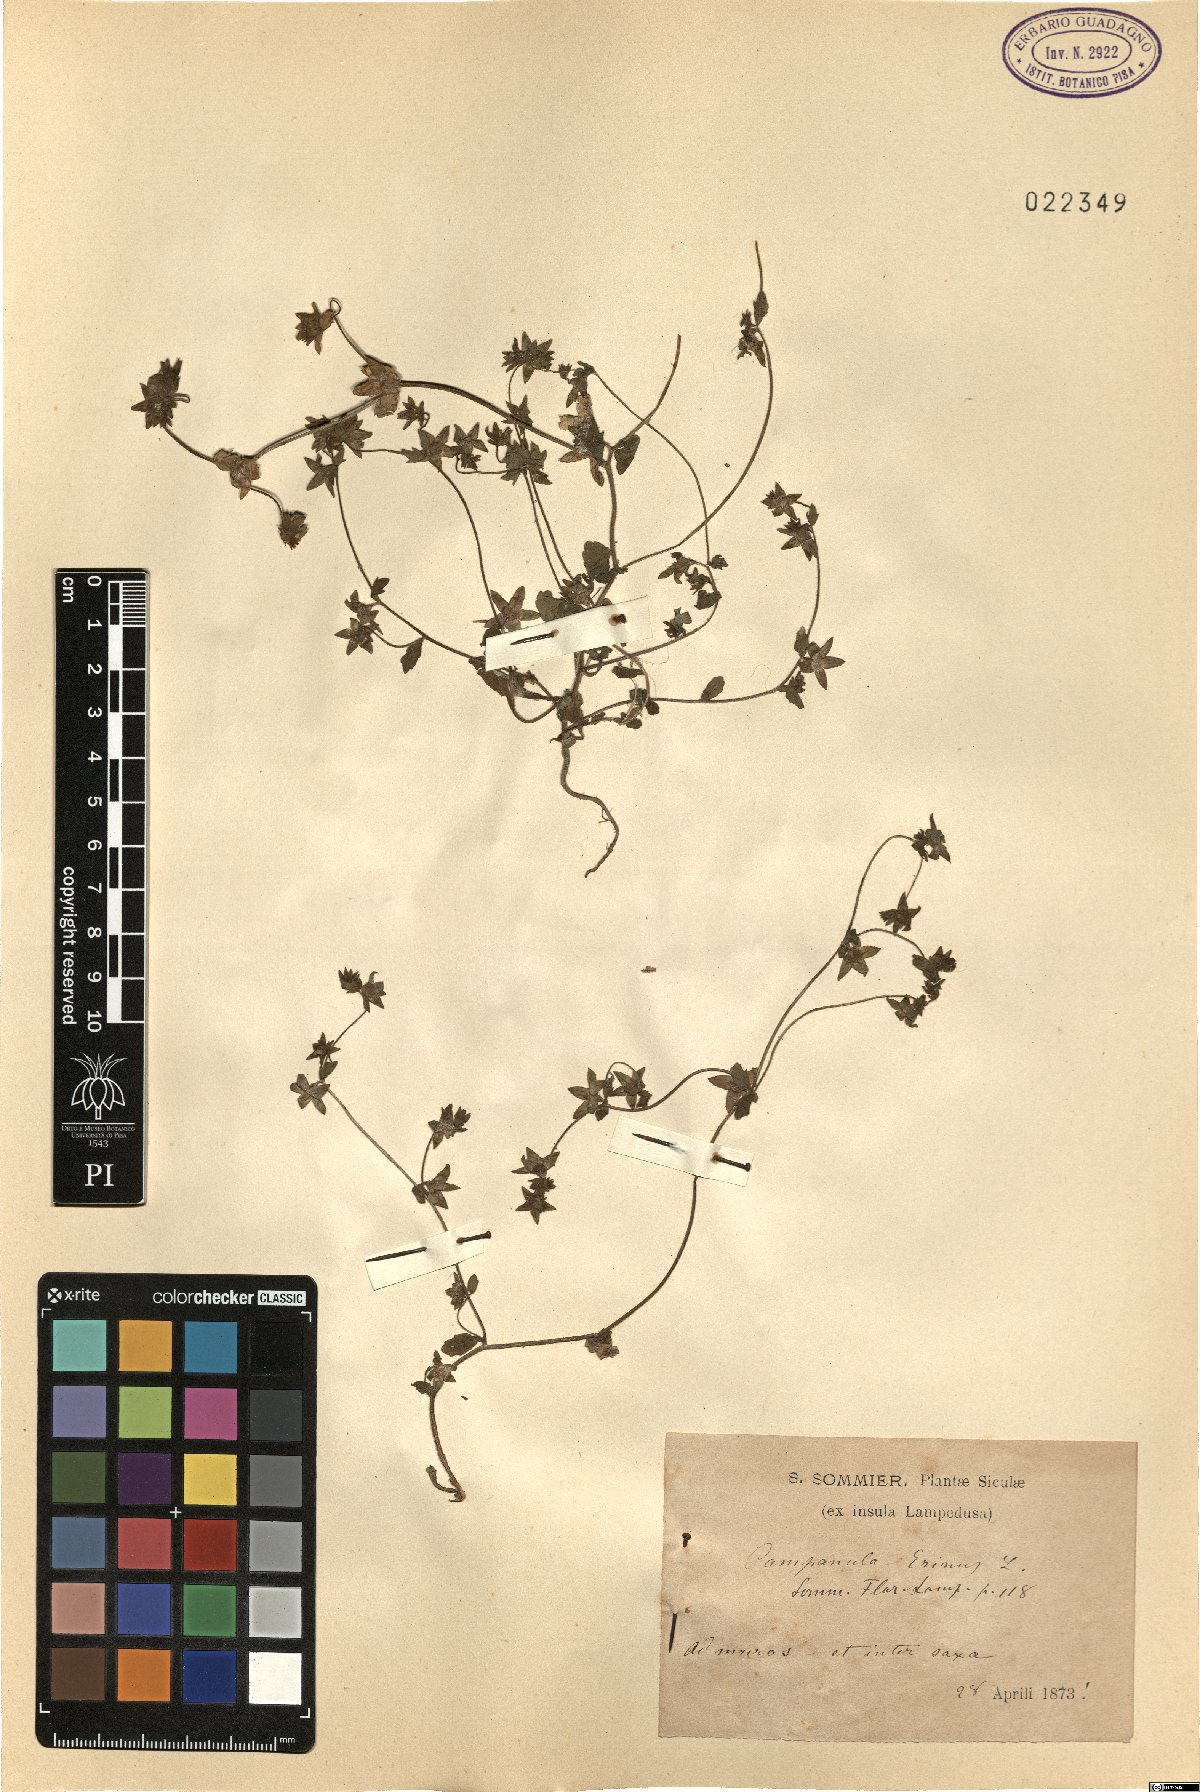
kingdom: Plantae
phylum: Tracheophyta
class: Magnoliopsida
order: Asterales
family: Campanulaceae
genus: Campanula
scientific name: Campanula erinus
